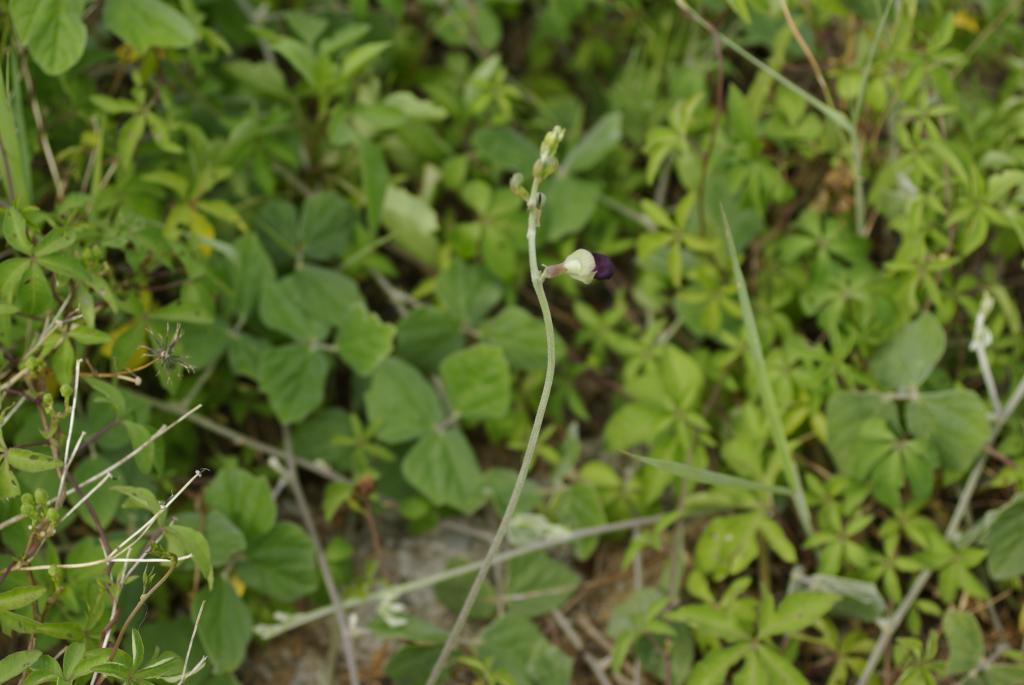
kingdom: Plantae
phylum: Tracheophyta
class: Magnoliopsida
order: Fabales
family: Fabaceae
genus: Macroptilium
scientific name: Macroptilium atropurpureum
